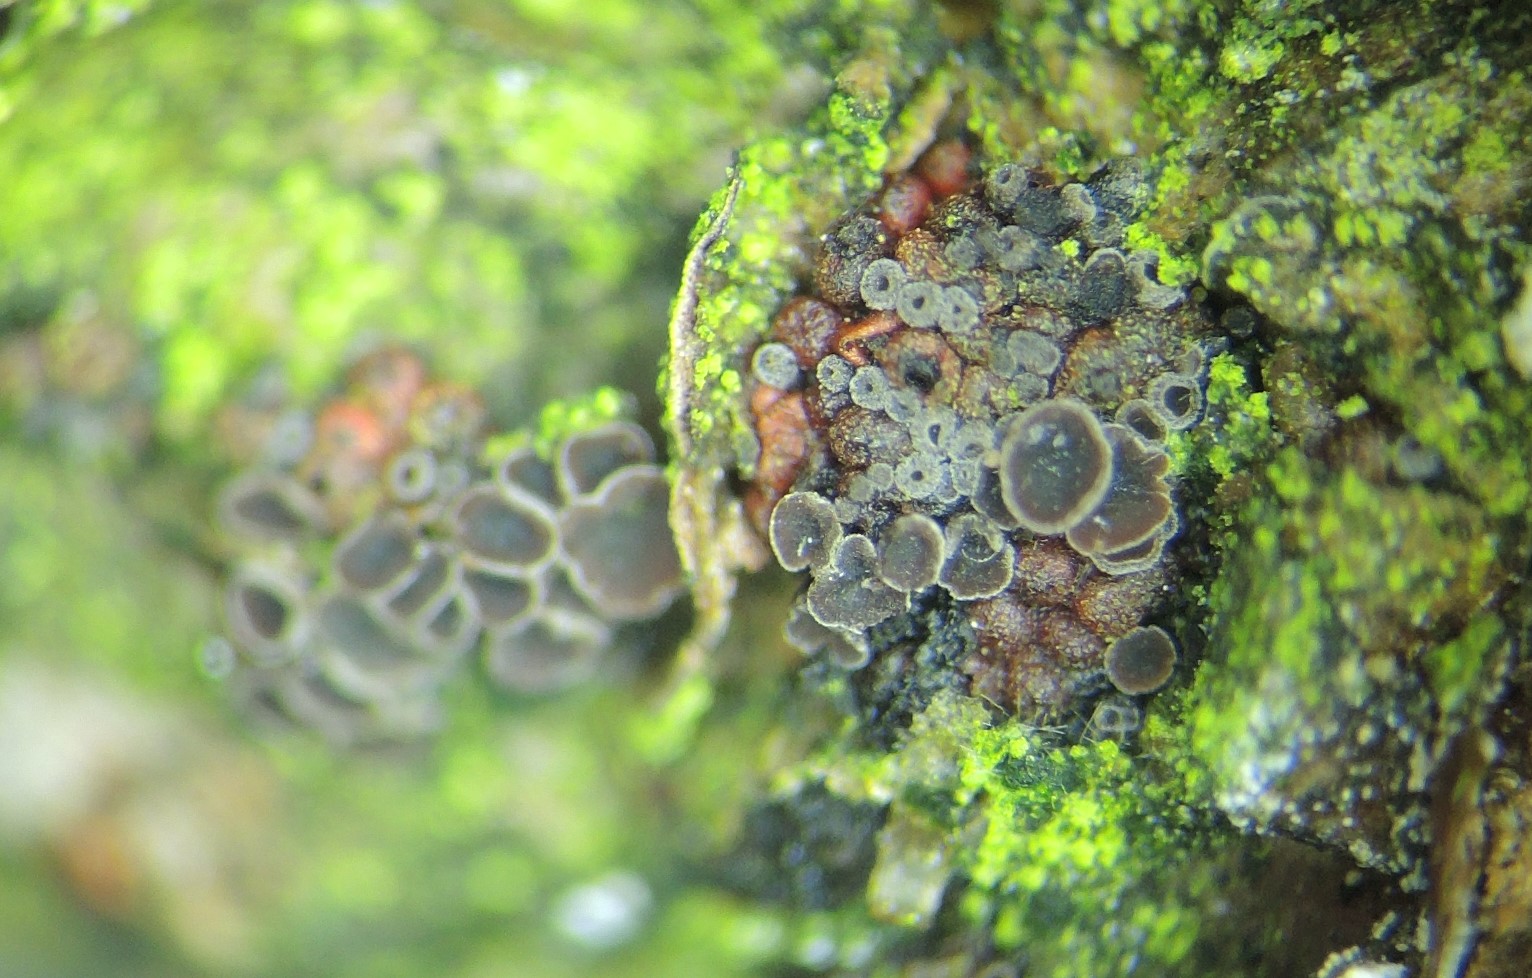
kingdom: Fungi
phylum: Ascomycota
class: Leotiomycetes
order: Helotiales
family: Cordieritidaceae
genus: Unguiculariopsis
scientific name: Unguiculariopsis
